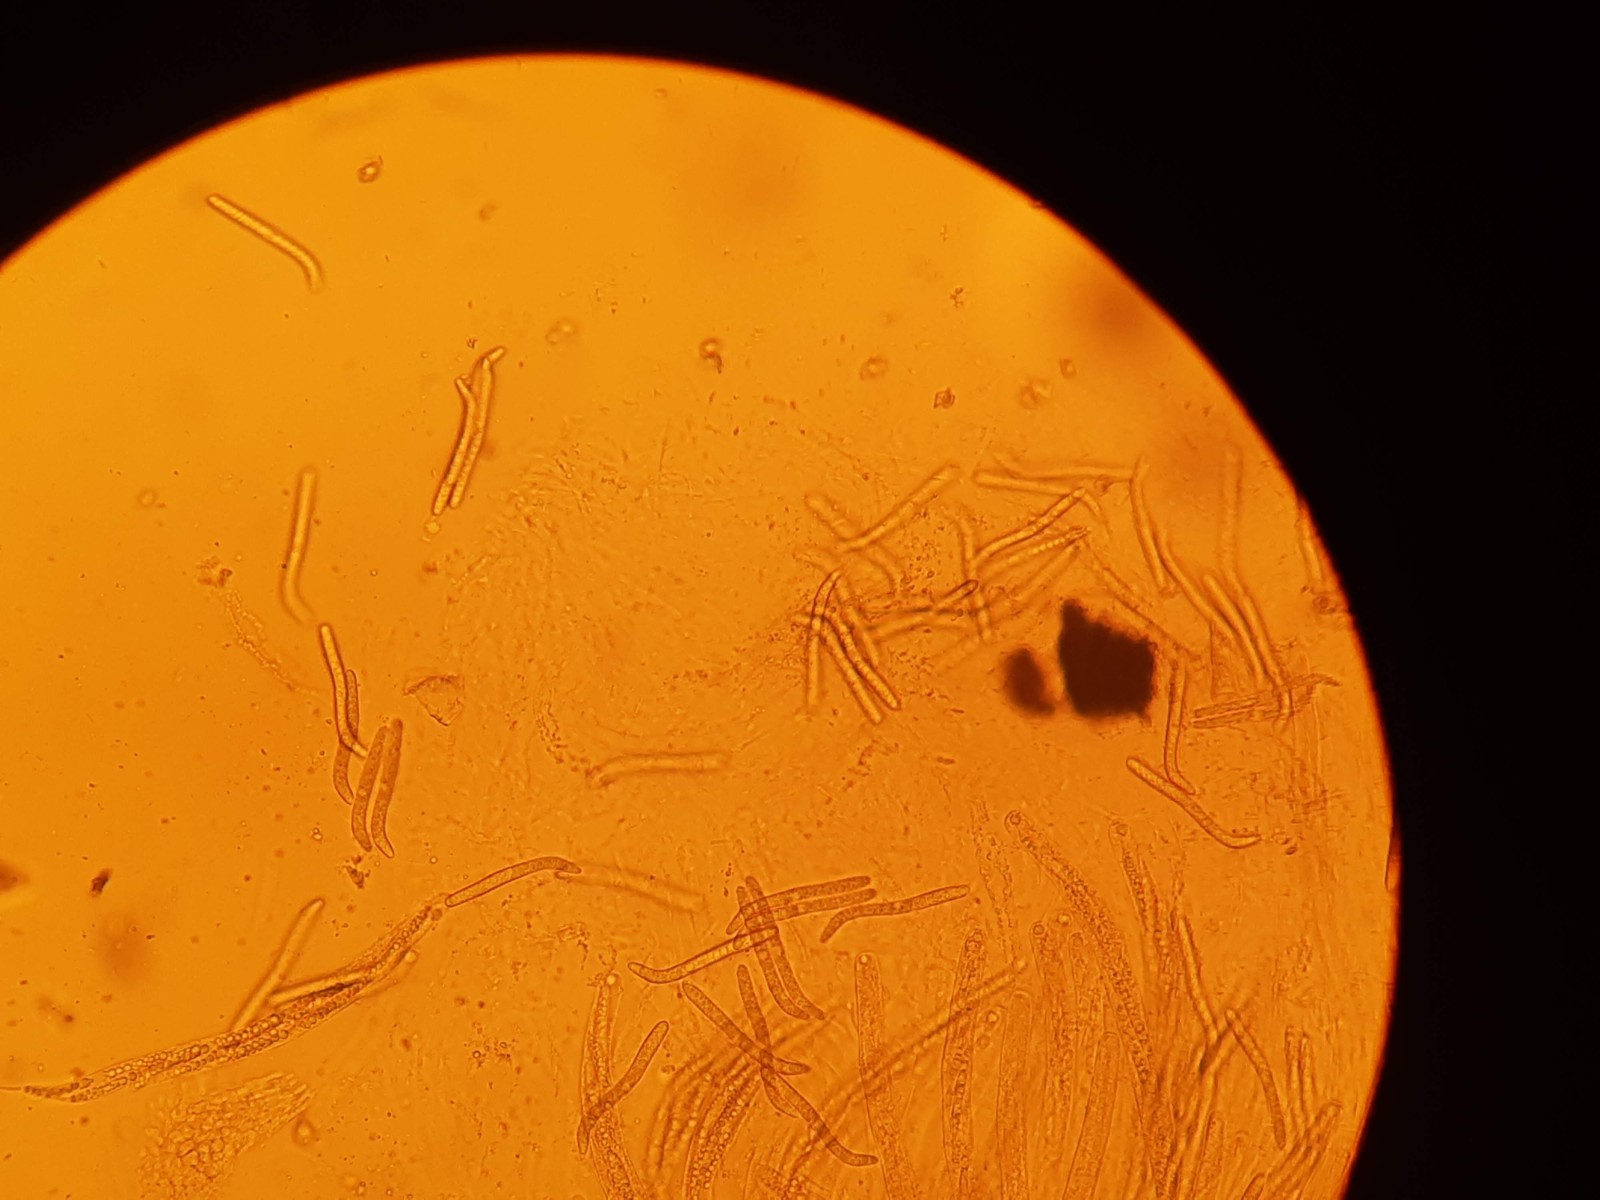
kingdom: Fungi
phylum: Ascomycota
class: Sordariomycetes
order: Sordariales
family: Lasiosphaeridaceae
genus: Lasiosphaeris
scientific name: Lasiosphaeris hirsuta
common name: sorthåret kernesvamp
